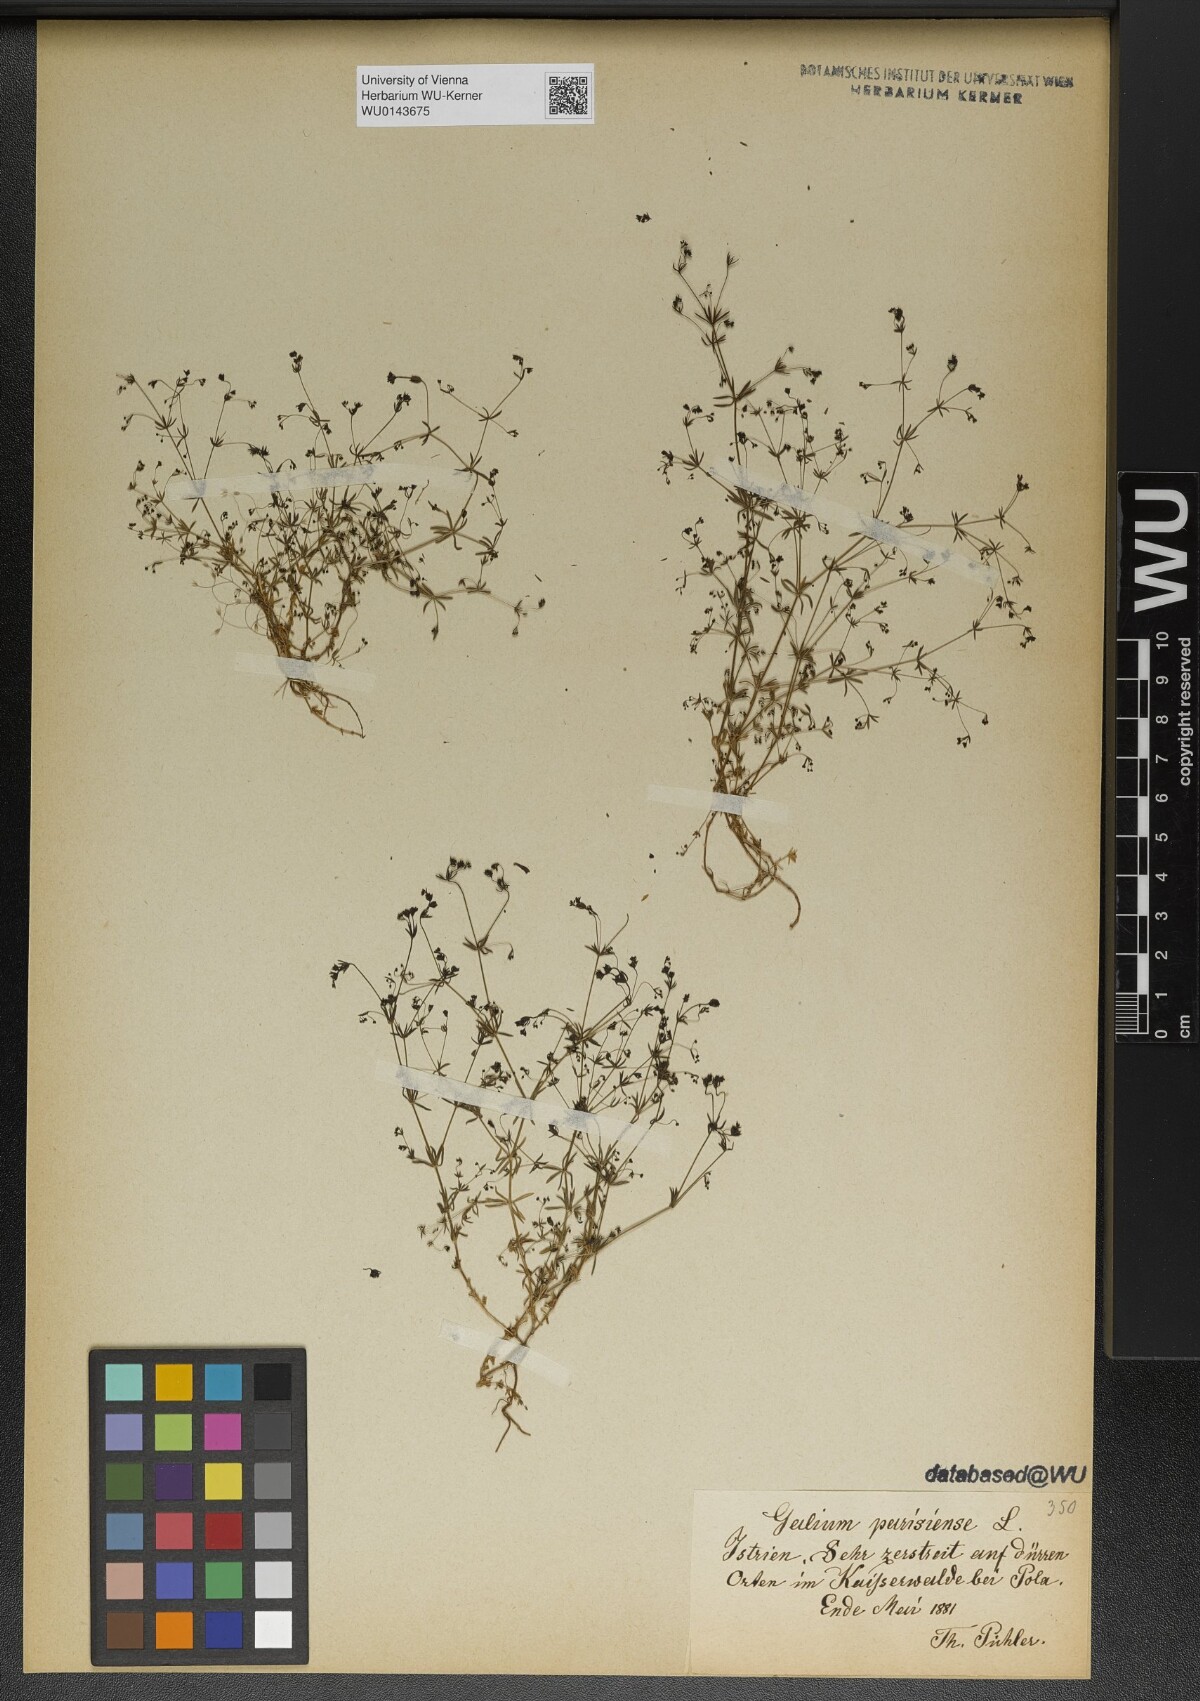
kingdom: Plantae
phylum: Tracheophyta
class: Magnoliopsida
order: Gentianales
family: Rubiaceae
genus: Galium
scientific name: Galium parisiense
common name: Wall bedstraw
